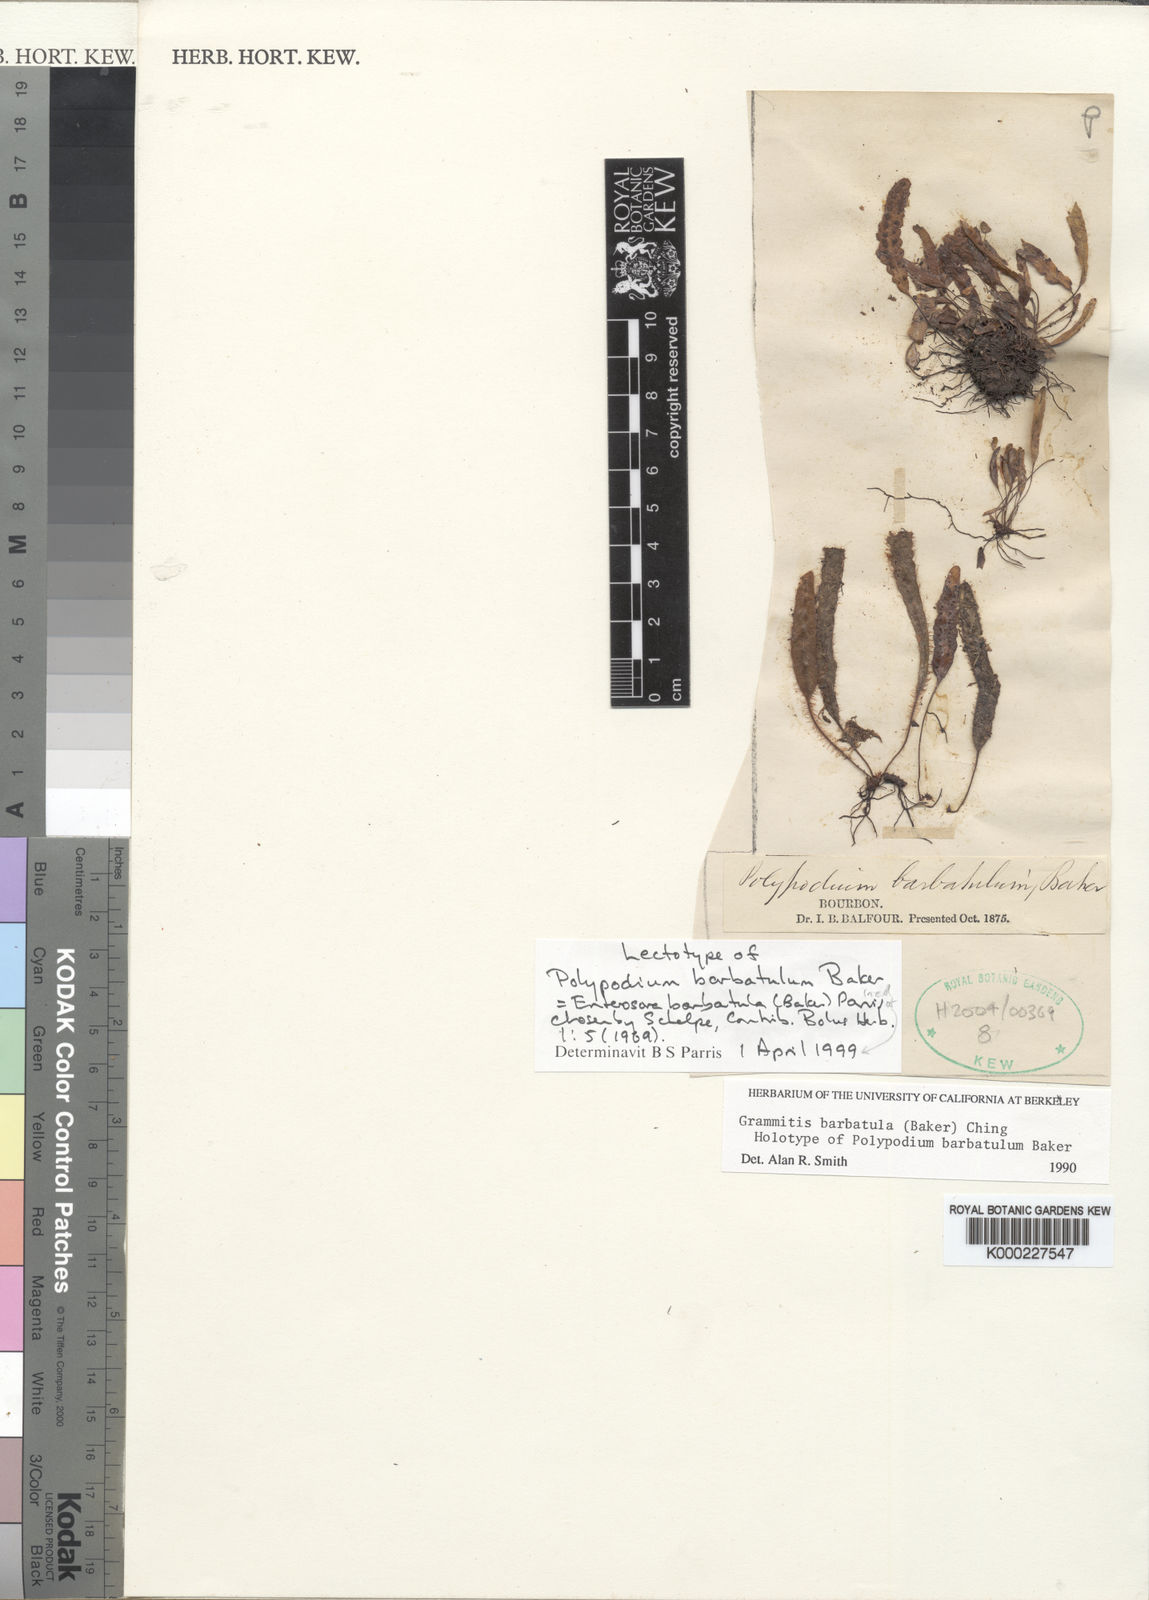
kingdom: Plantae
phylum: Tracheophyta
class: Polypodiopsida
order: Polypodiales
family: Polypodiaceae
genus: Enterosora
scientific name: Enterosora barbatula
